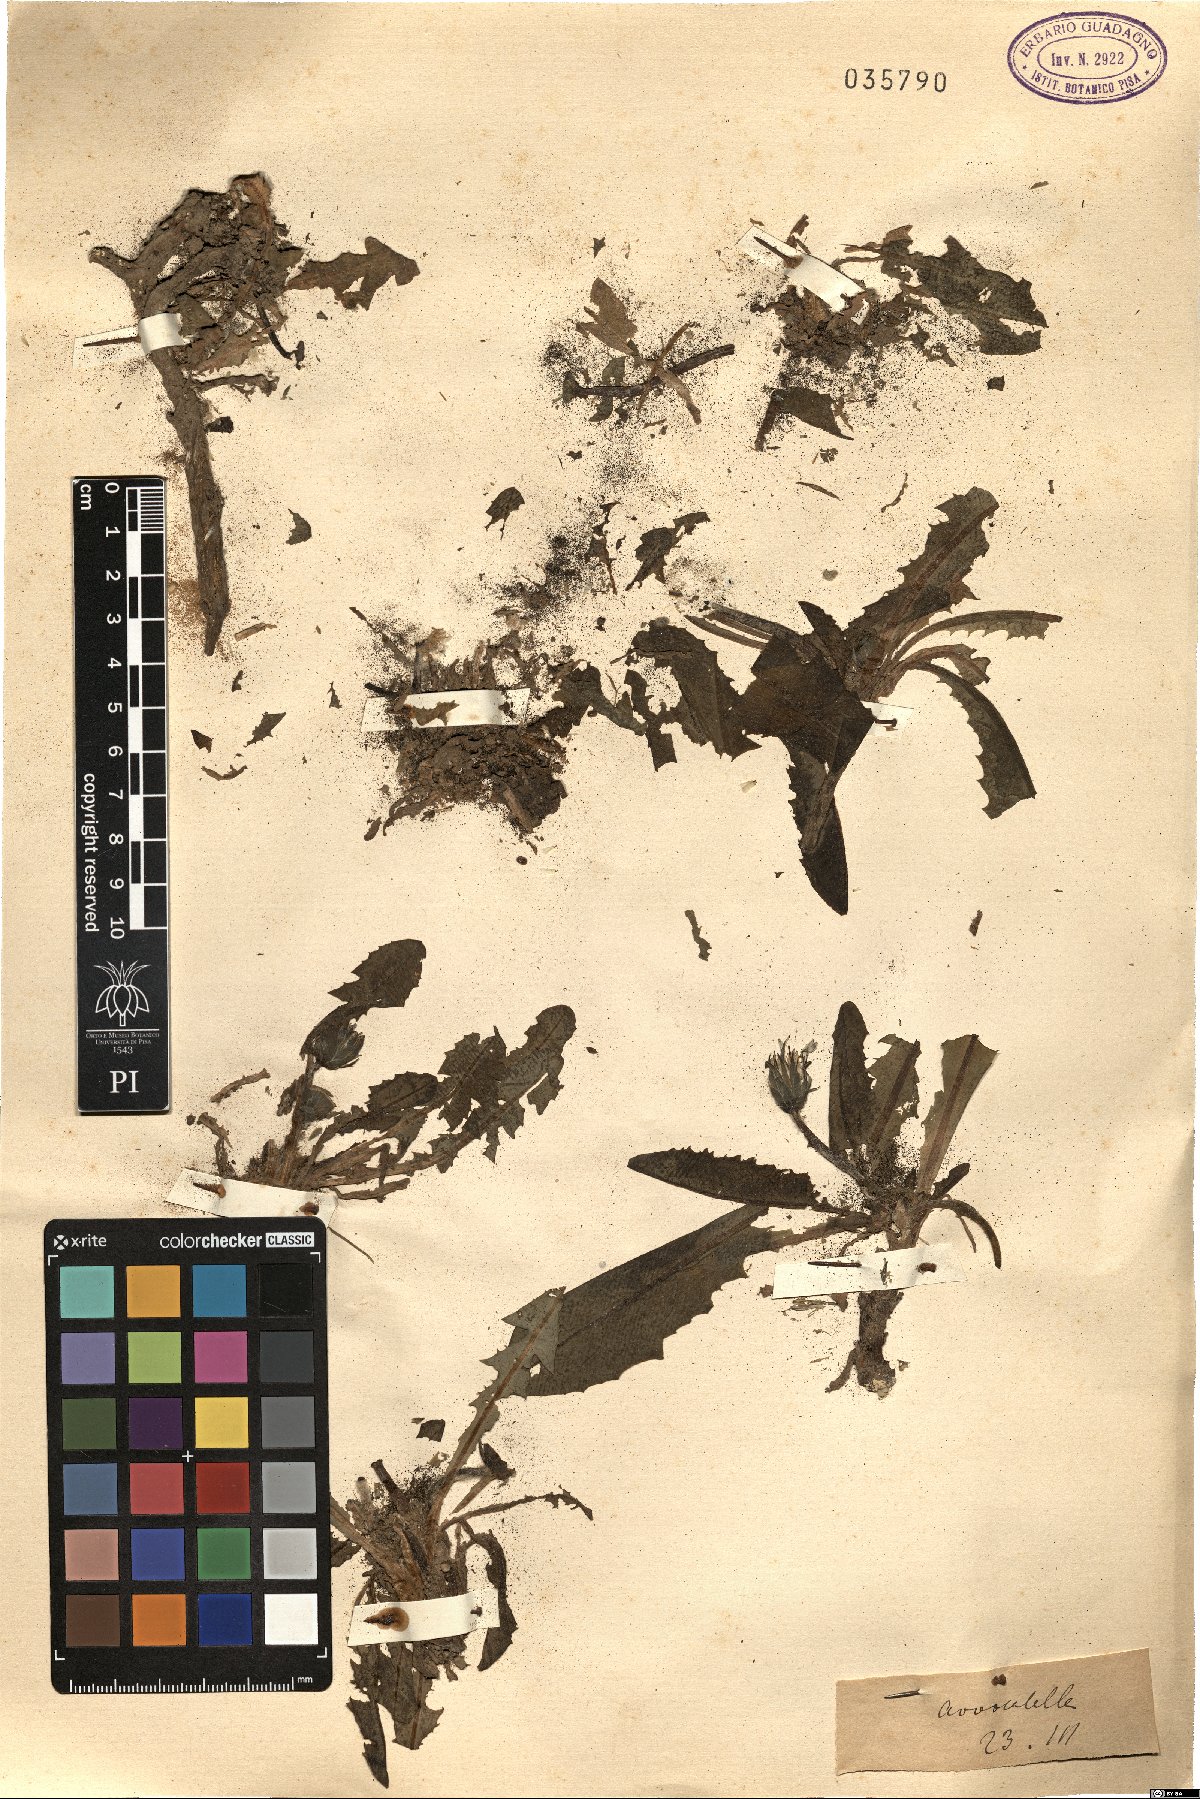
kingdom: Plantae
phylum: Tracheophyta
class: Magnoliopsida
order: Asterales
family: Asteraceae
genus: Taraxacum
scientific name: Taraxacum
